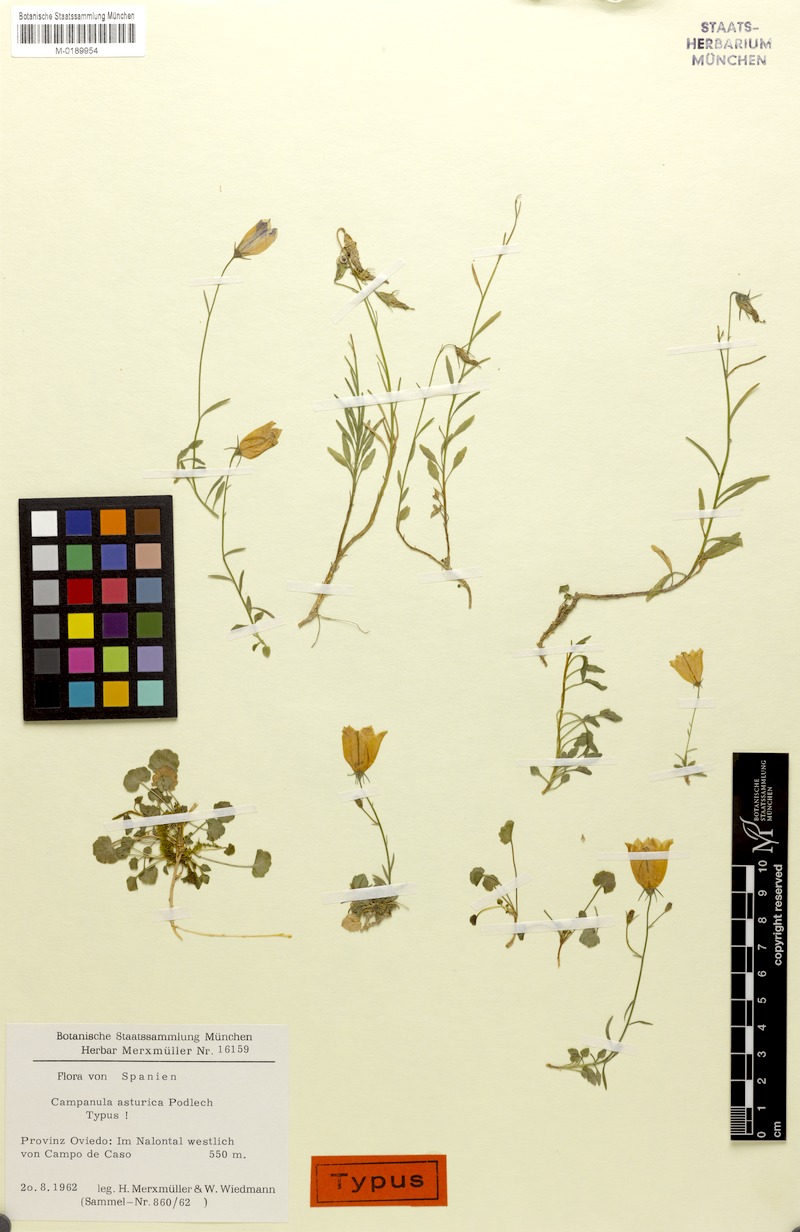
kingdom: Plantae
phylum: Tracheophyta
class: Magnoliopsida
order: Asterales
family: Campanulaceae
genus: Campanula
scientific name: Campanula rotundifolia
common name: Harebell
